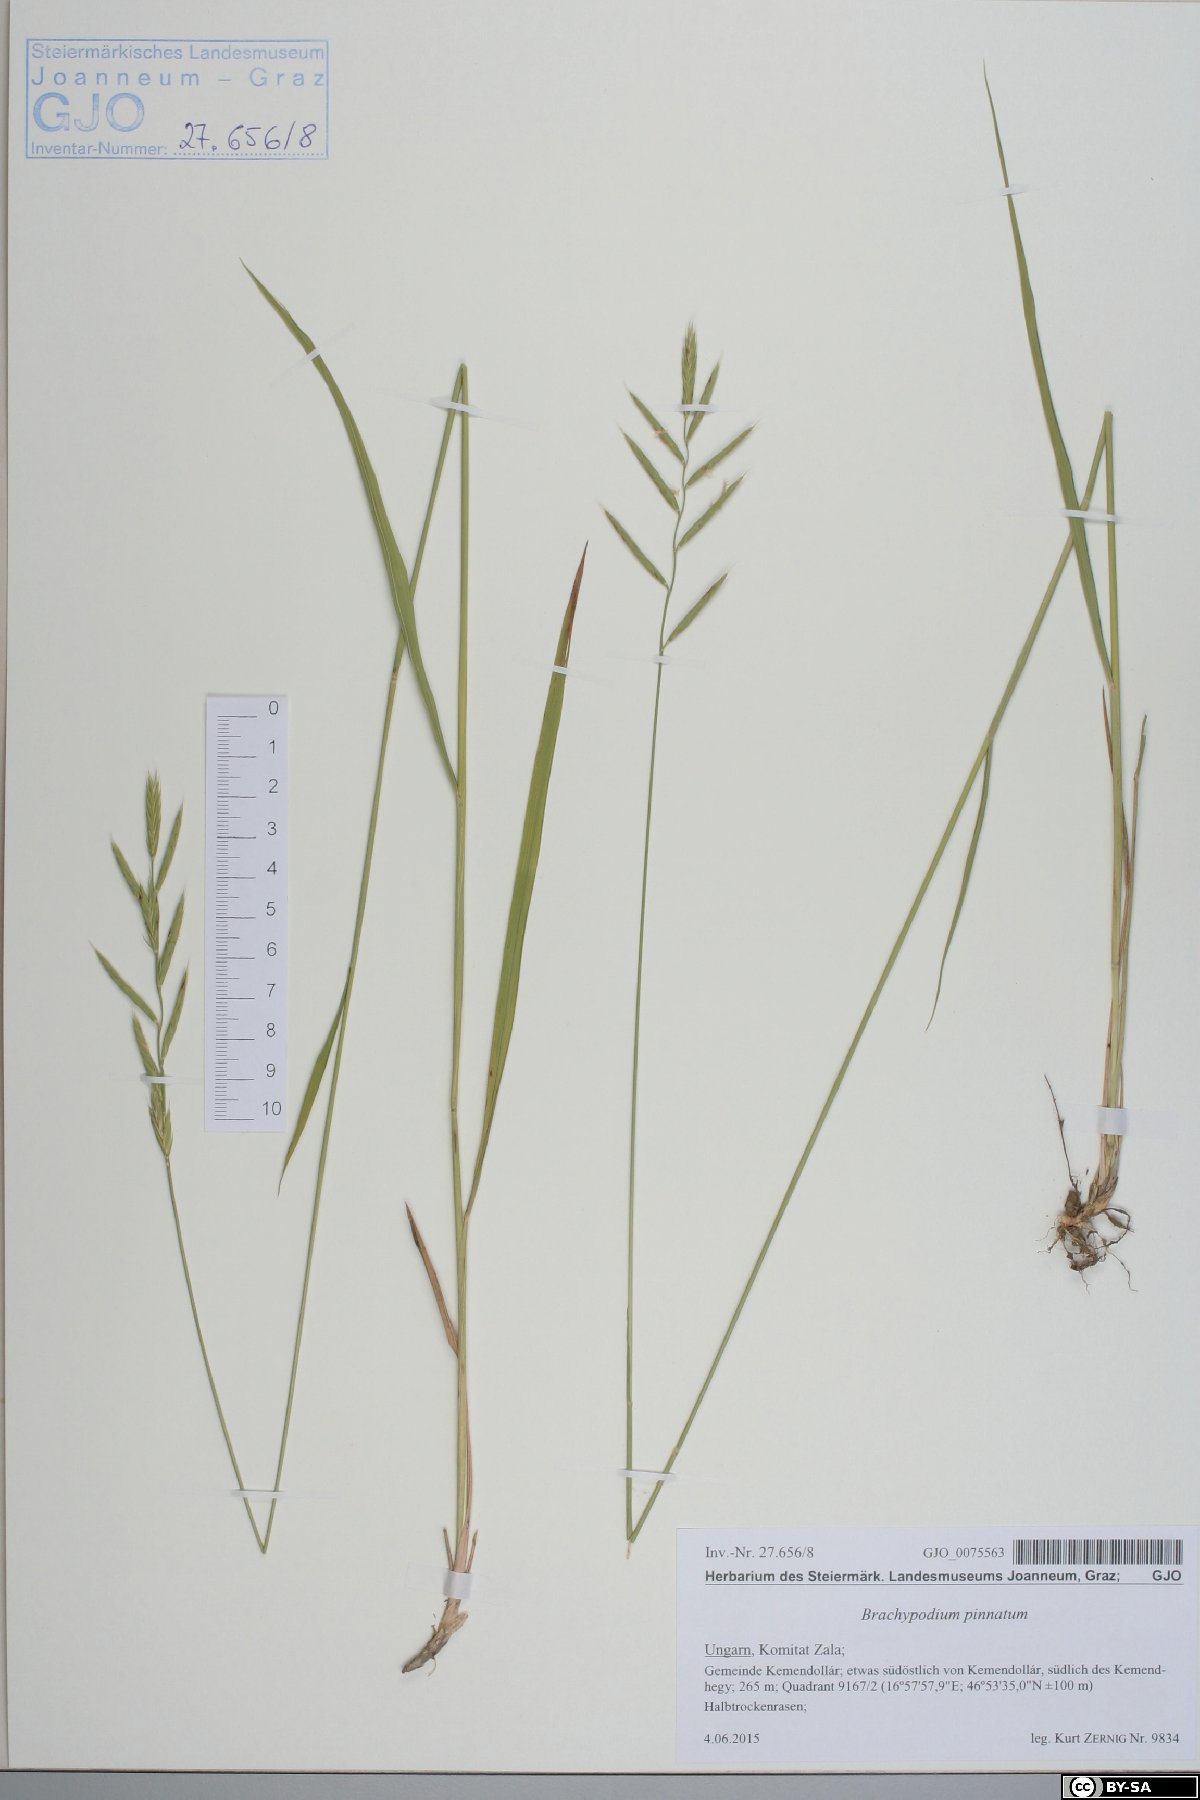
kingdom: Plantae
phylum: Tracheophyta
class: Liliopsida
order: Poales
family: Poaceae
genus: Brachypodium
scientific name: Brachypodium pinnatum
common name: Tor grass
